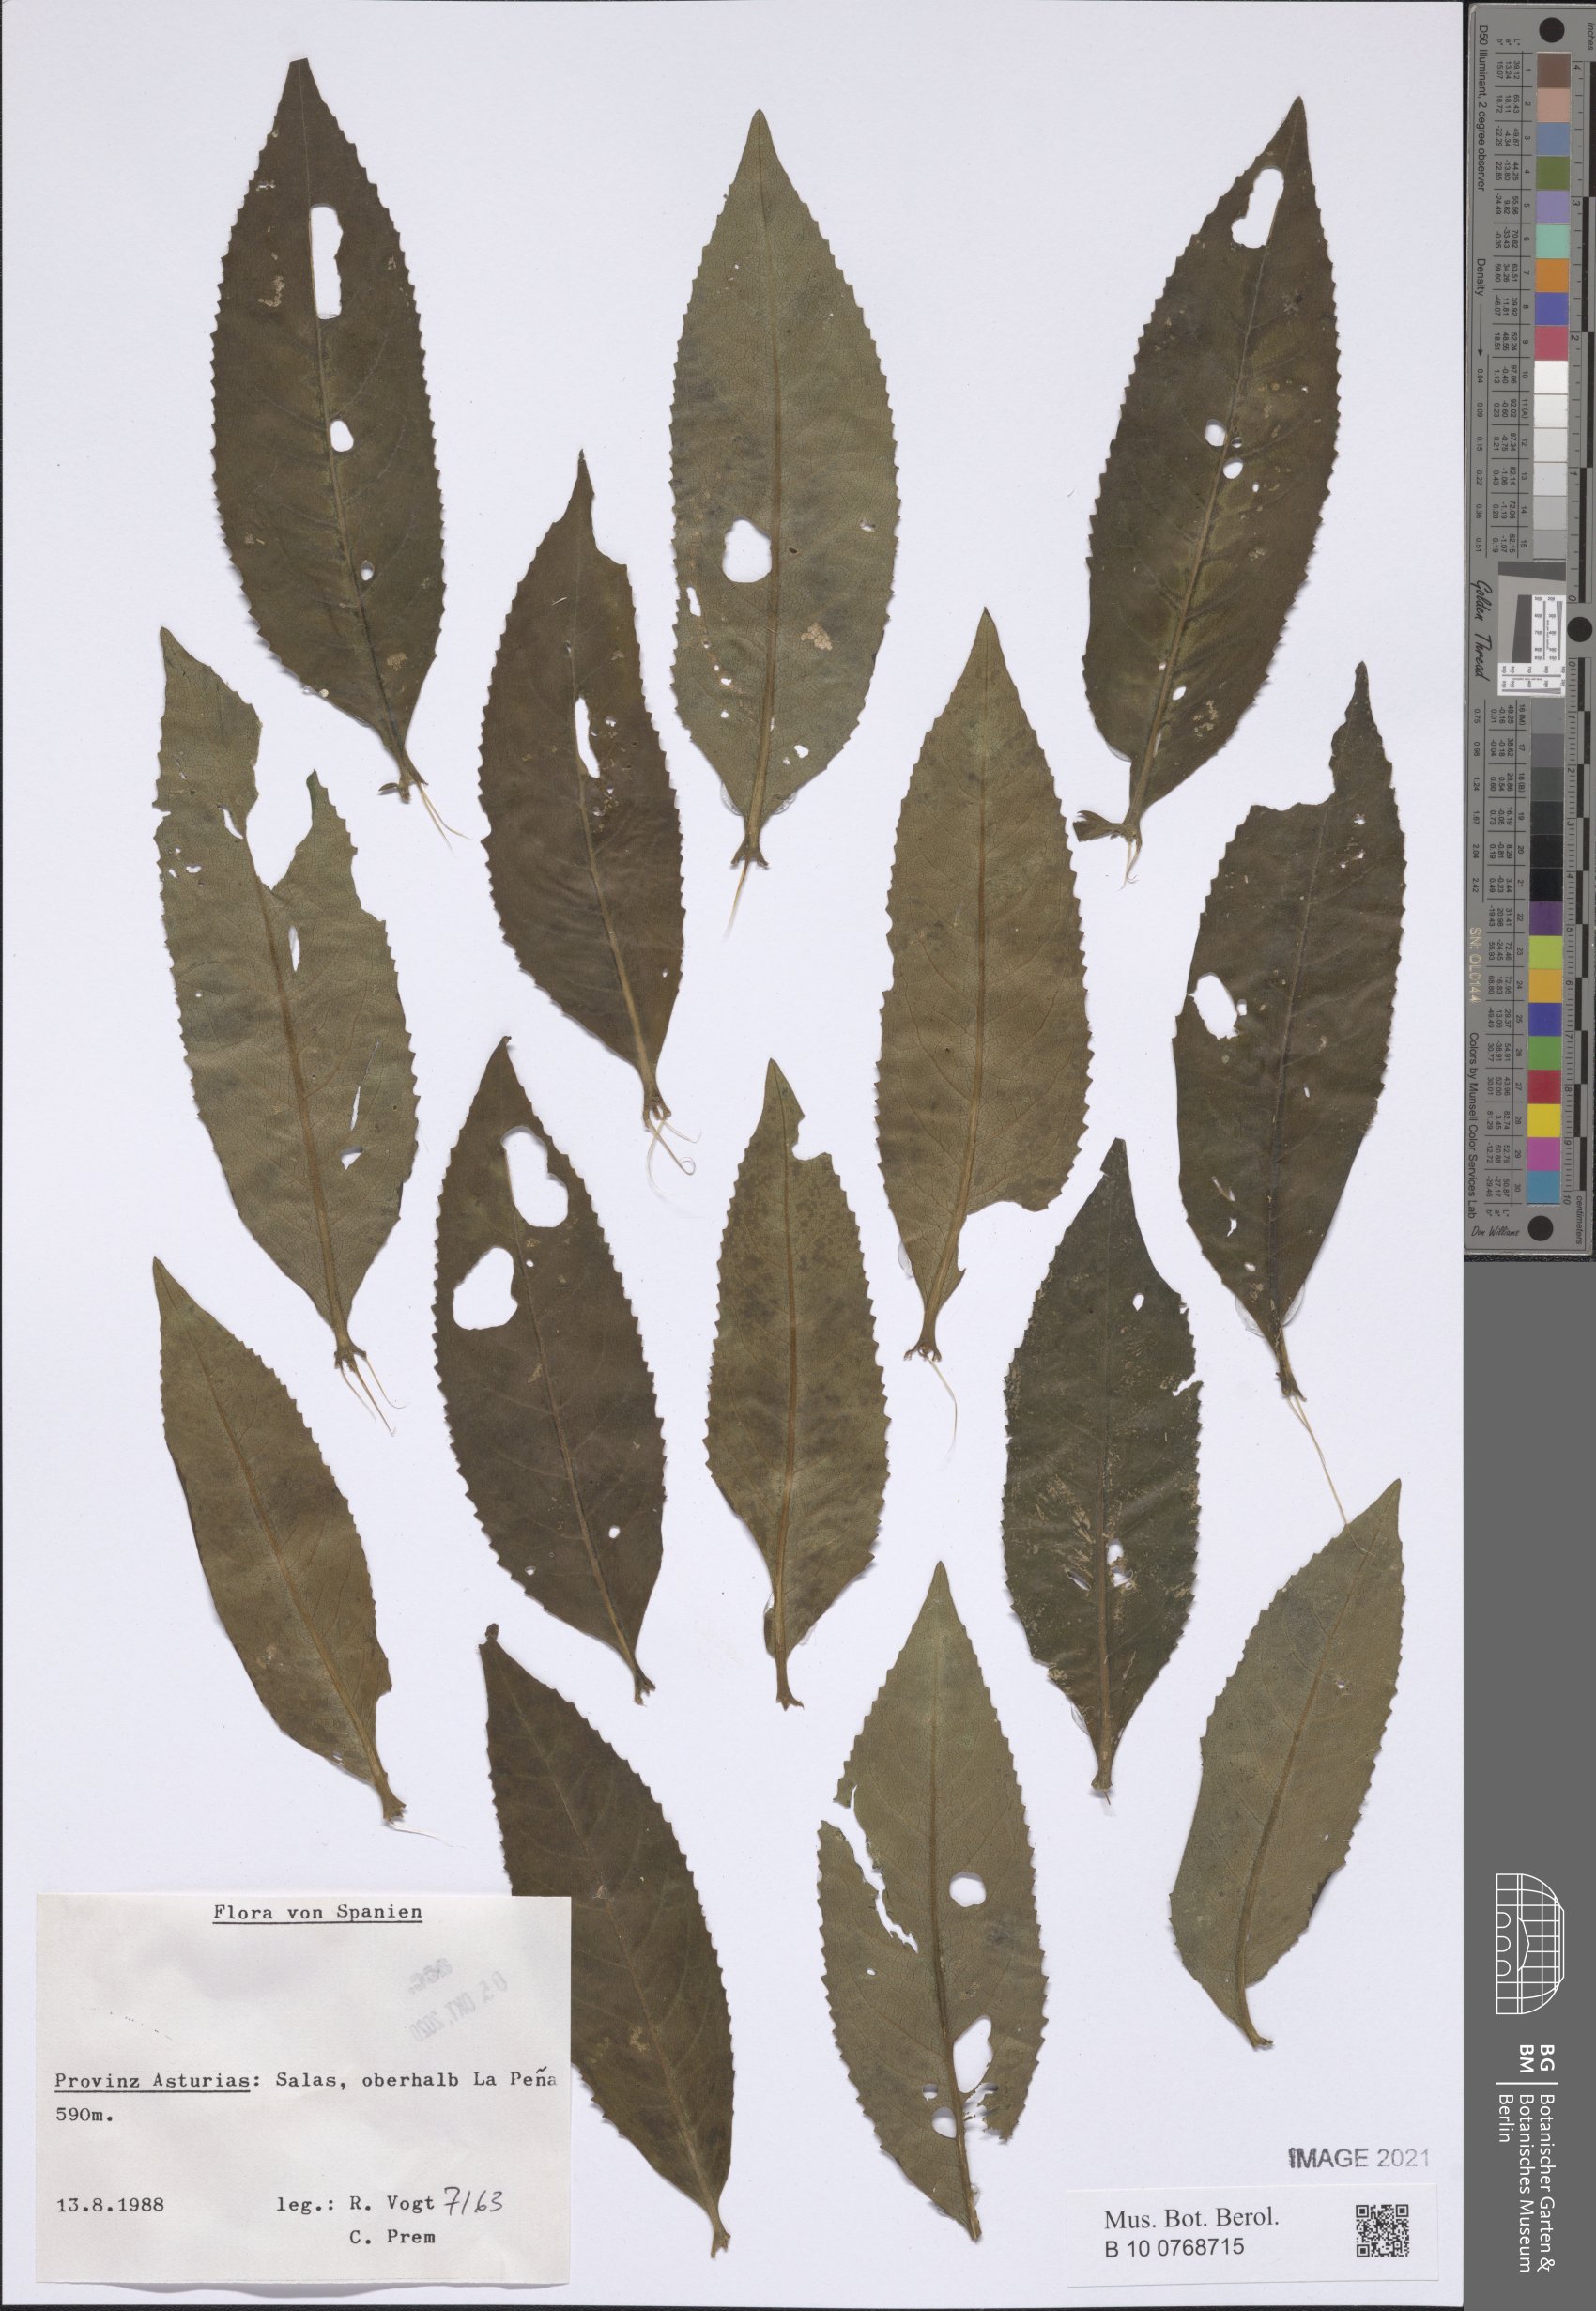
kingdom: Plantae
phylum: Tracheophyta
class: Magnoliopsida
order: Asterales
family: Asteraceae
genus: Senecio
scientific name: Senecio
